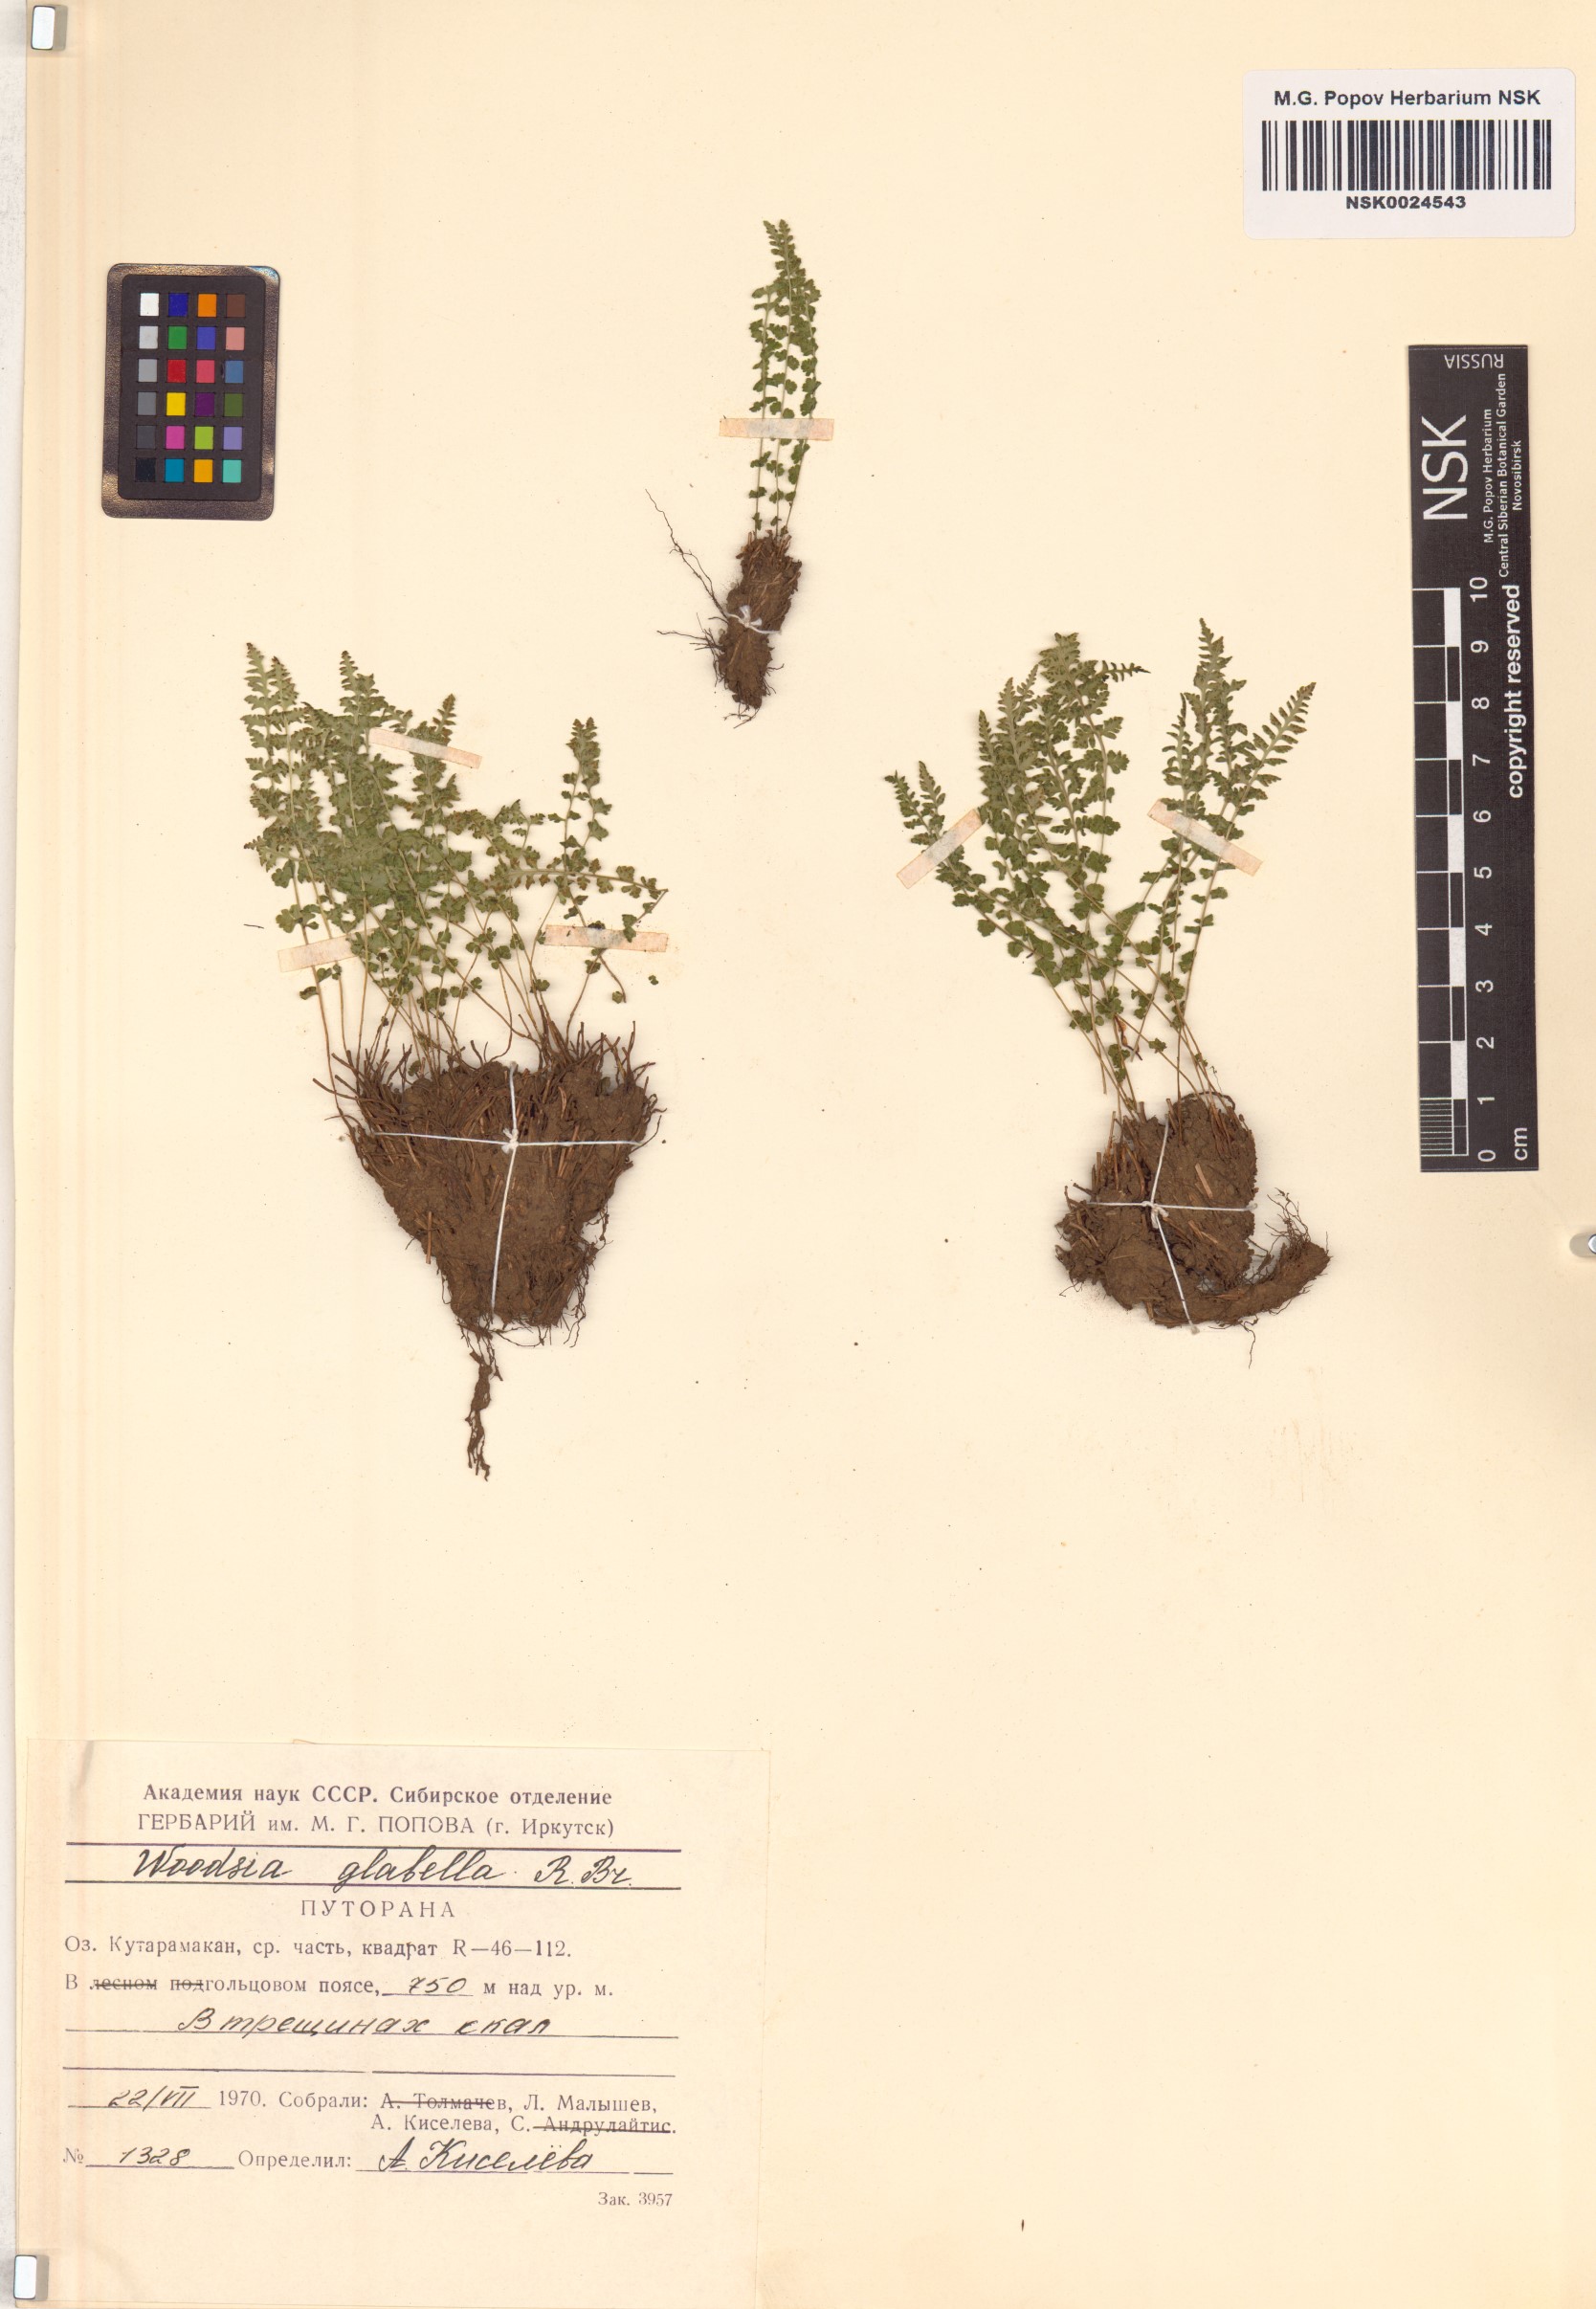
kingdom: Plantae
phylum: Tracheophyta
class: Polypodiopsida
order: Polypodiales
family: Woodsiaceae
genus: Woodsia
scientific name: Woodsia glabella
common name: Smooth woodsia
